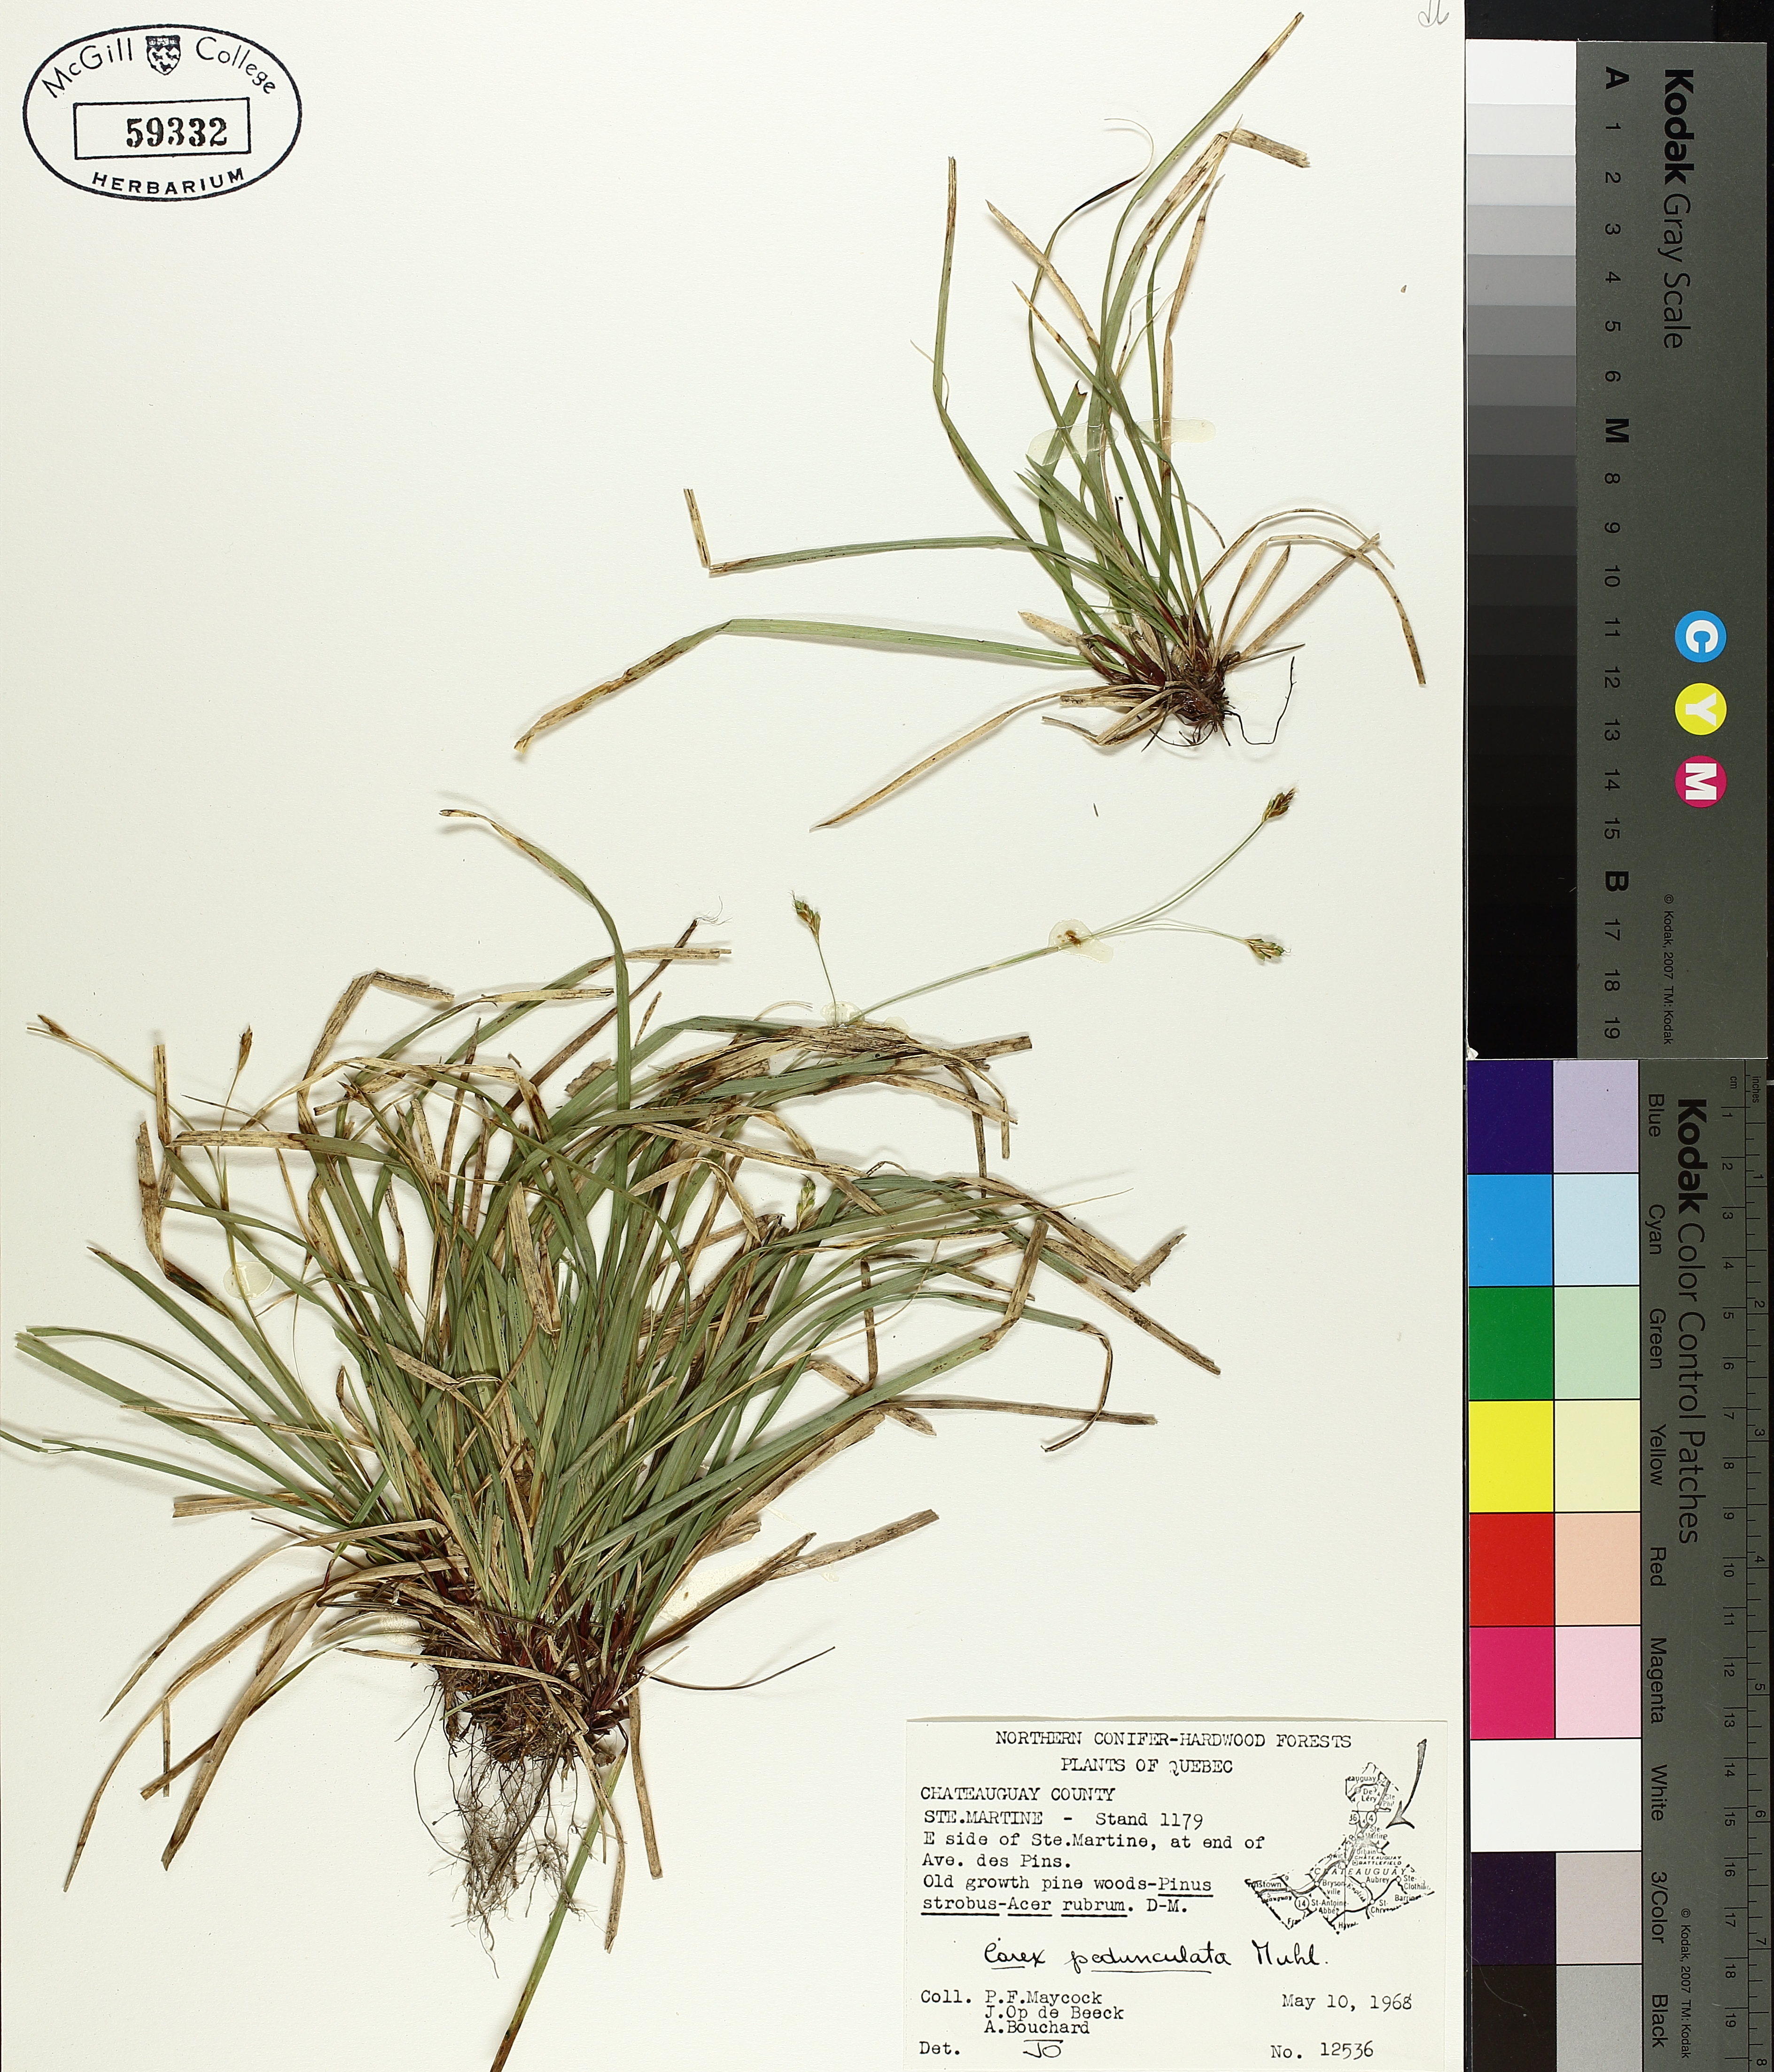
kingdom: Plantae
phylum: Tracheophyta
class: Liliopsida
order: Poales
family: Cyperaceae
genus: Carex
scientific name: Carex pedunculata
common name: Pedunculate sedge
